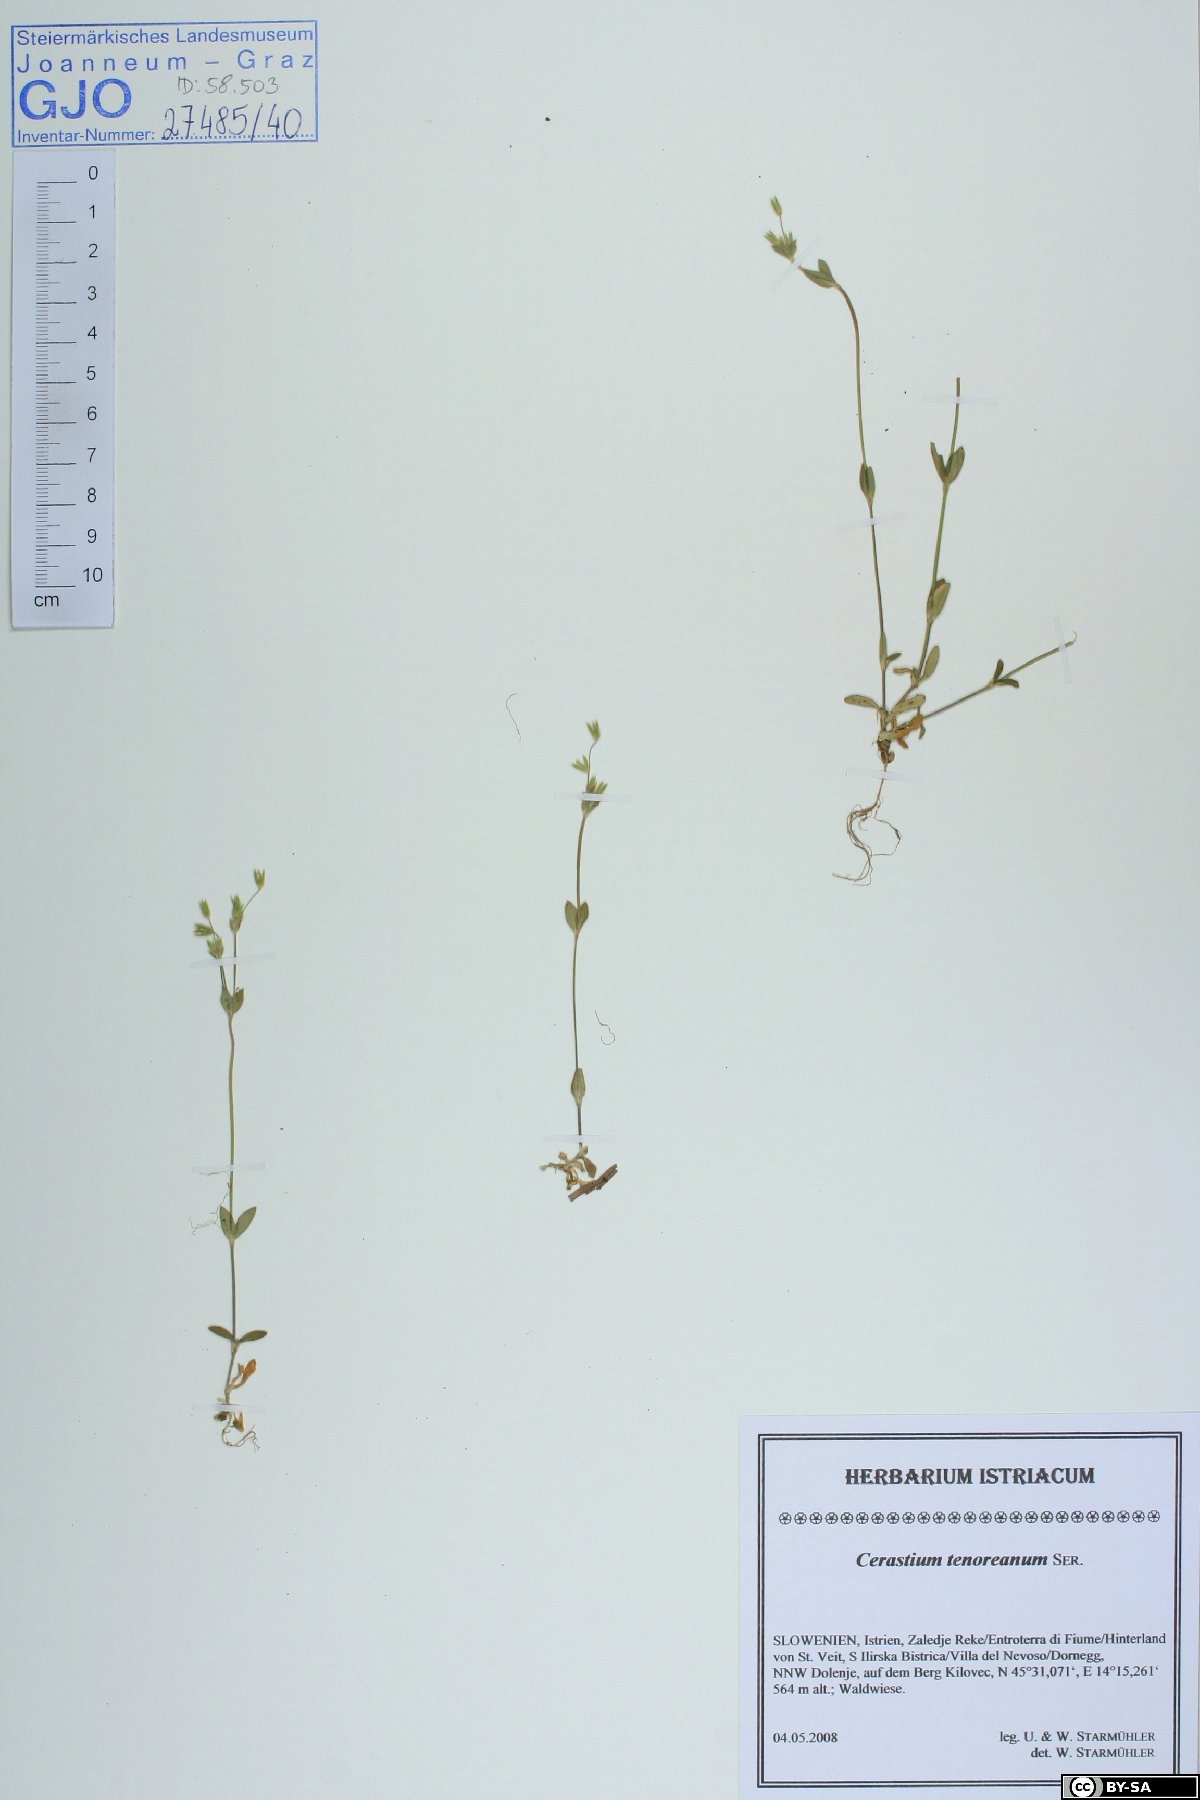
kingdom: Plantae
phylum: Tracheophyta
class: Magnoliopsida
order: Caryophyllales
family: Caryophyllaceae
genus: Cerastium
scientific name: Cerastium tenoreanum
